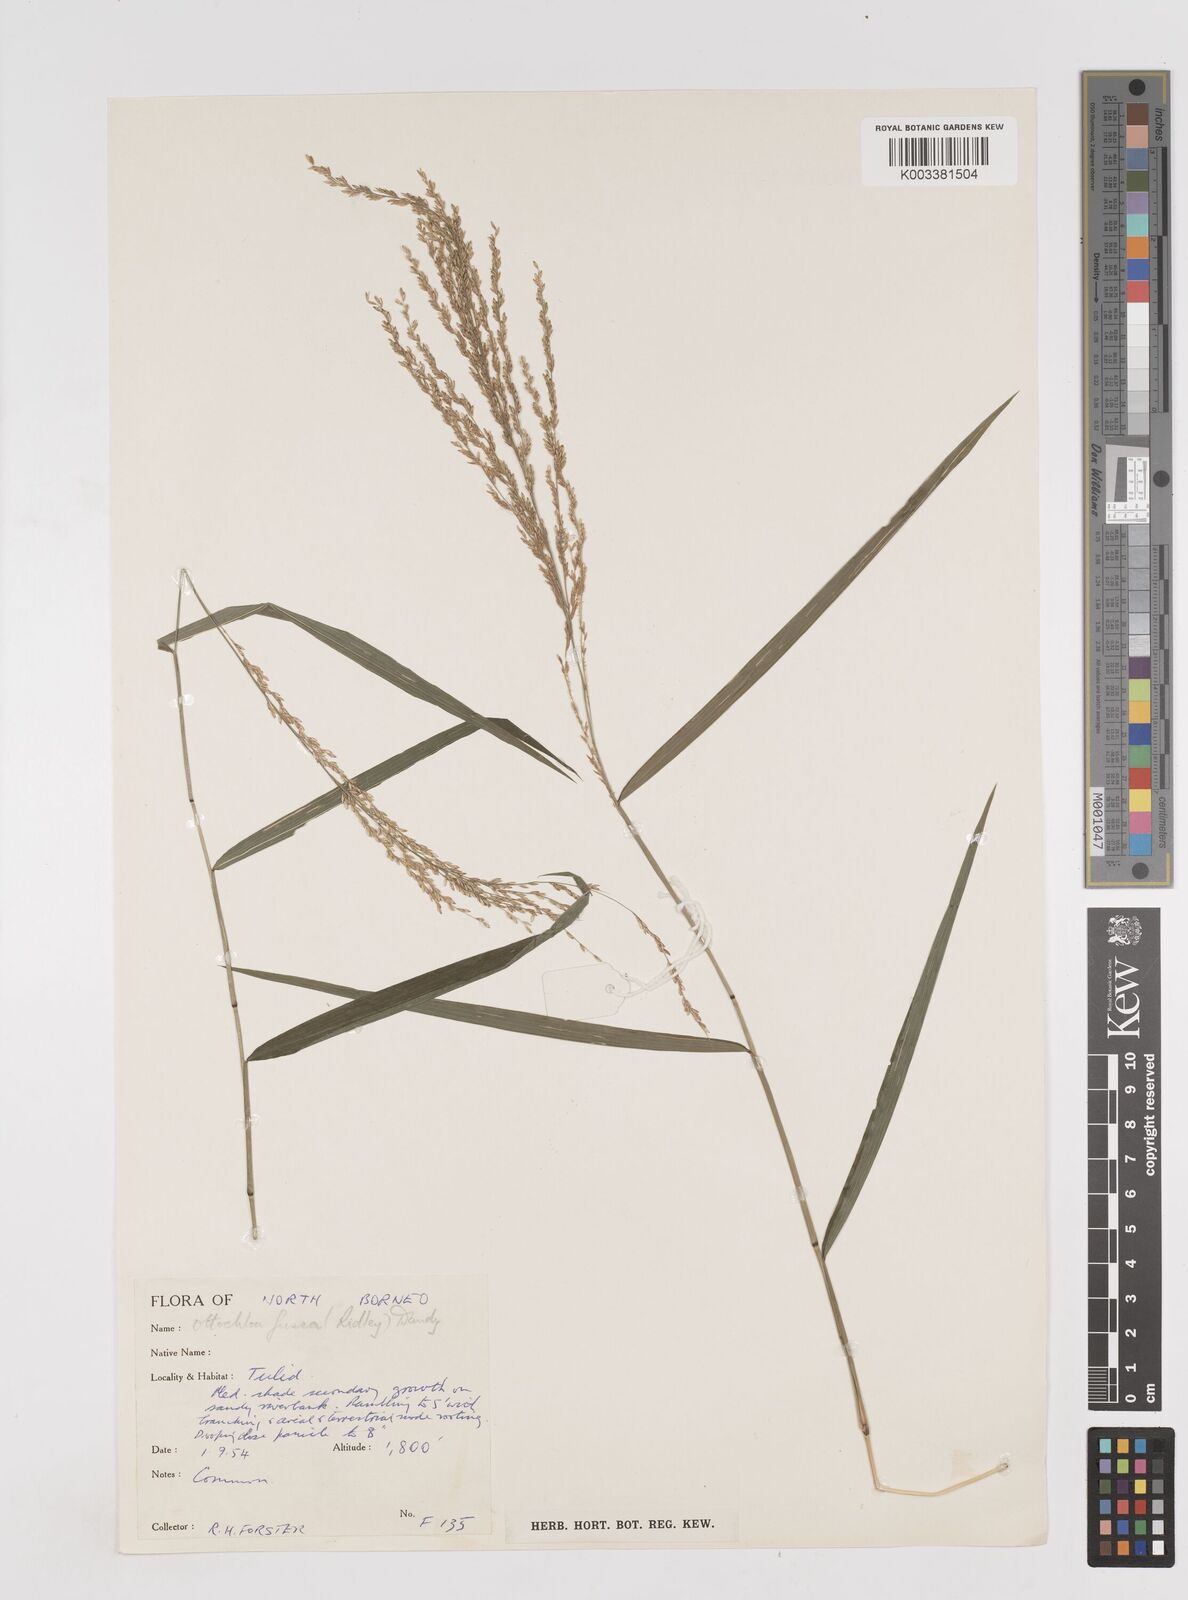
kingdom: Plantae
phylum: Tracheophyta
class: Liliopsida
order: Poales
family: Poaceae
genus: Ottochloa
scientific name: Ottochloa nodosa
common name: Slender-panic grass
